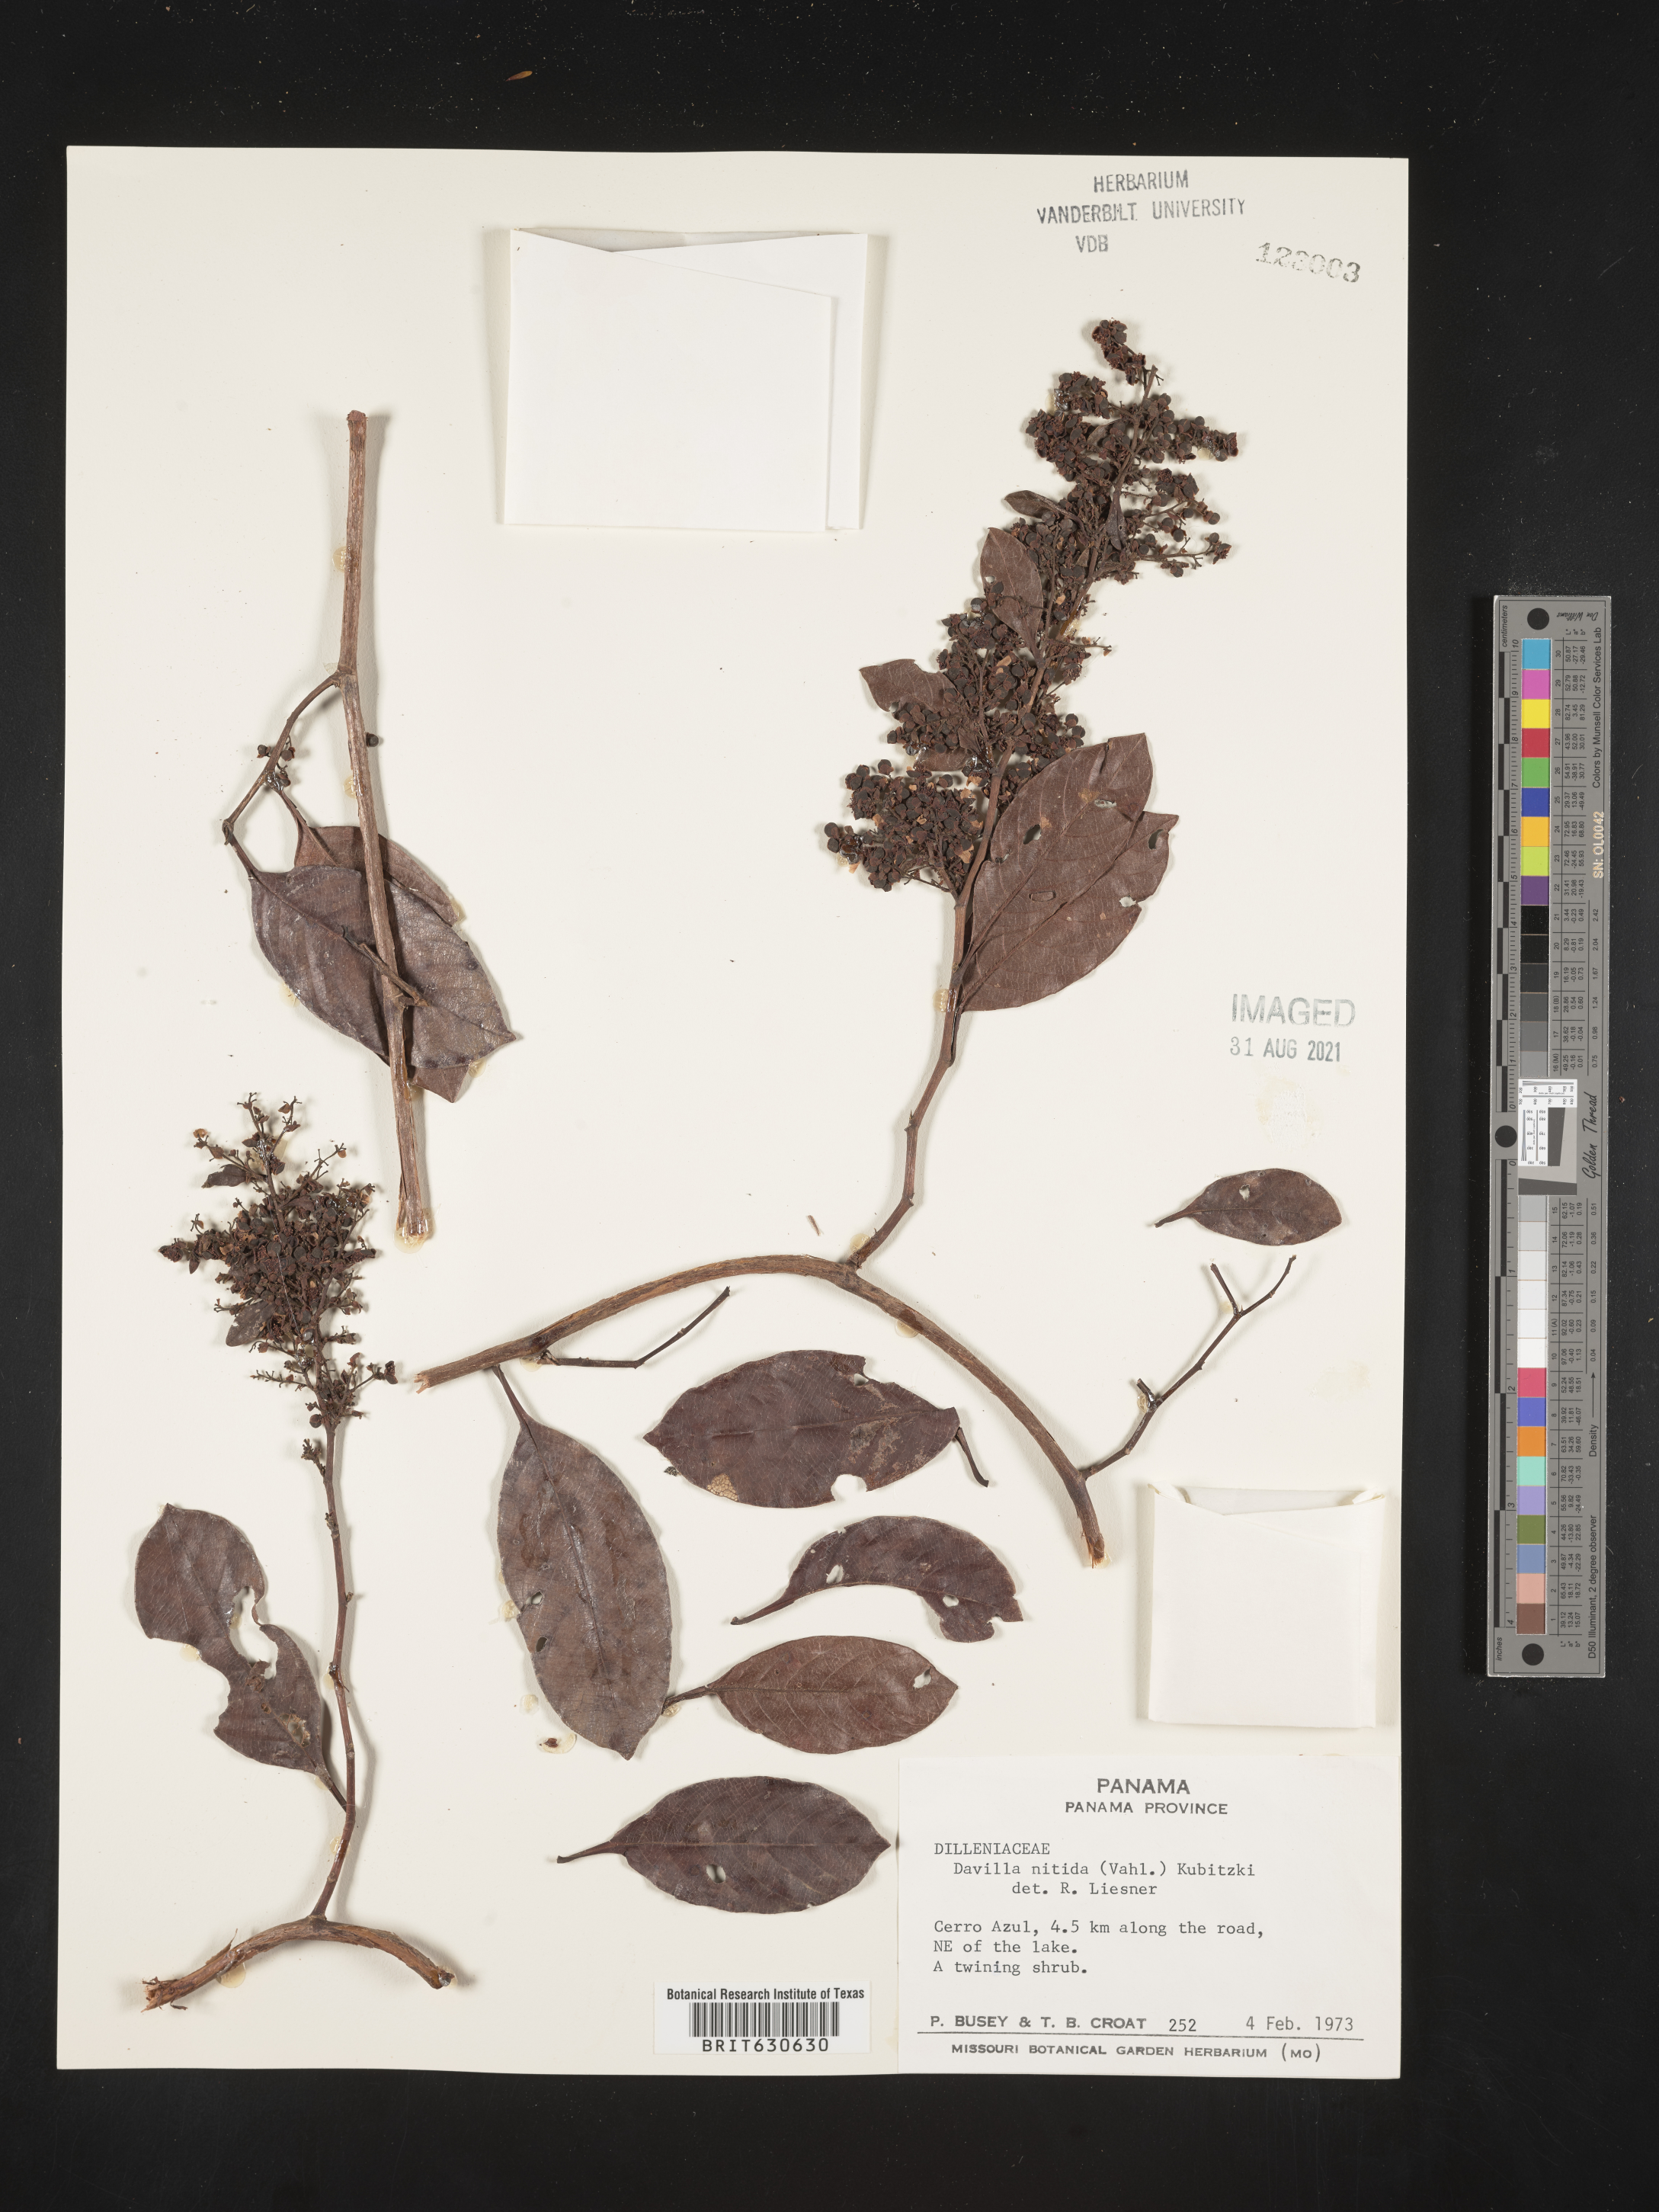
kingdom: Plantae
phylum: Tracheophyta
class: Magnoliopsida
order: Dilleniales
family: Dilleniaceae
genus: Davilla
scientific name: Davilla
